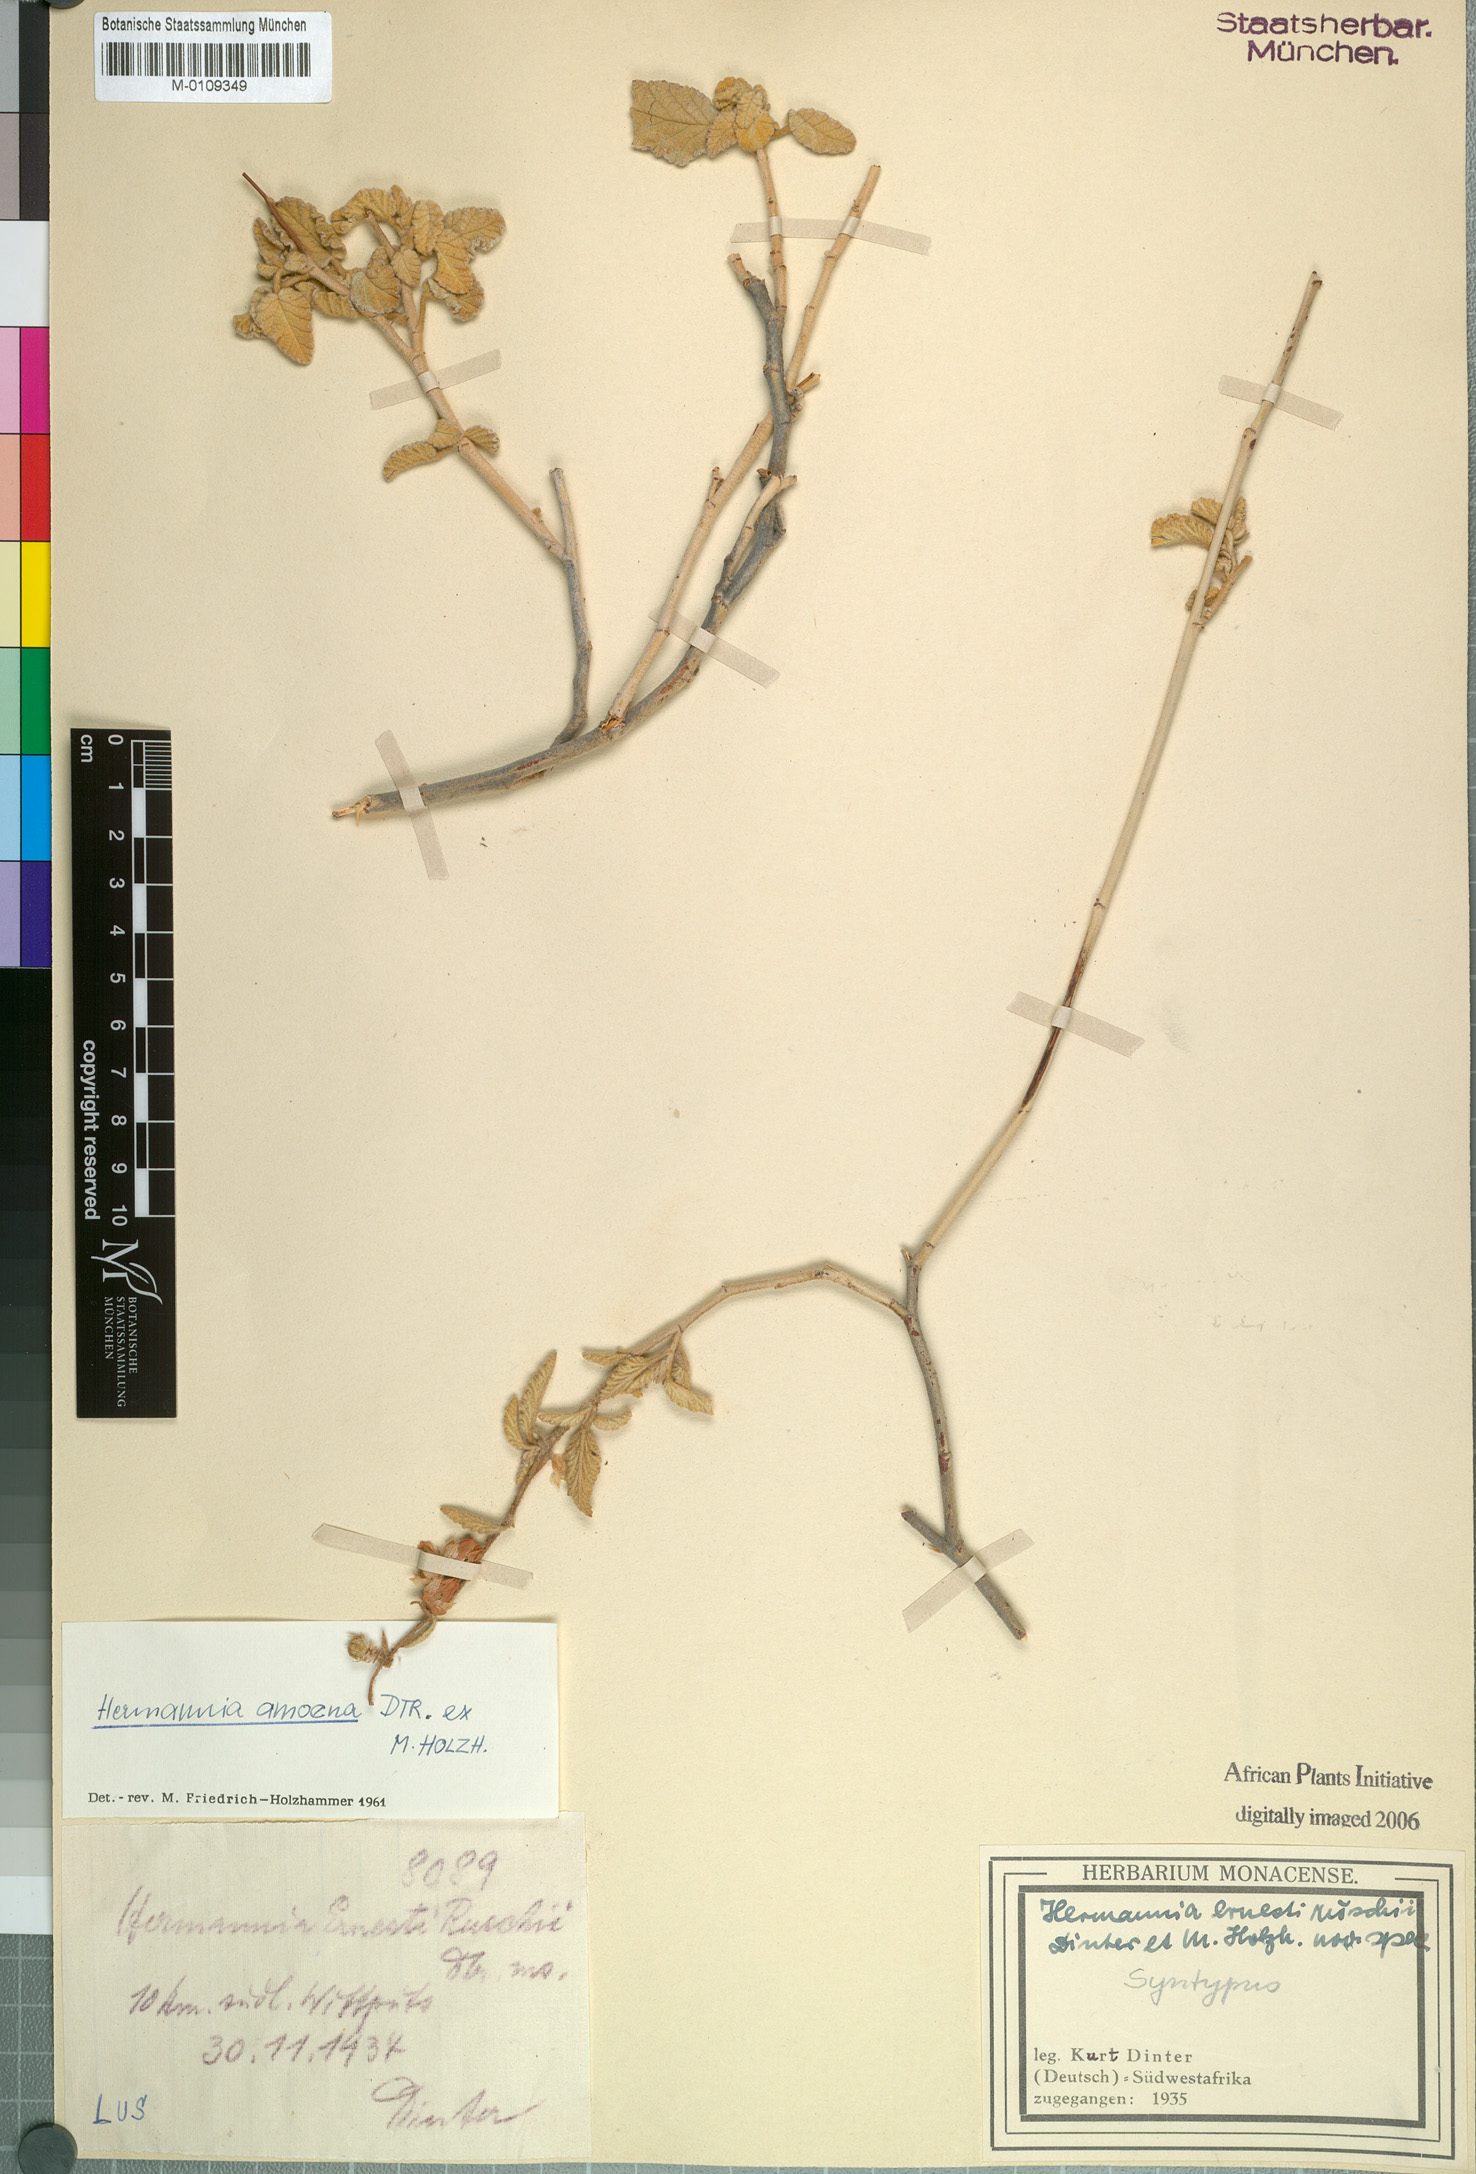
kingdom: Plantae
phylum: Tracheophyta
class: Magnoliopsida
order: Malvales
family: Malvaceae
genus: Hermannia
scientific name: Hermannia amoena
